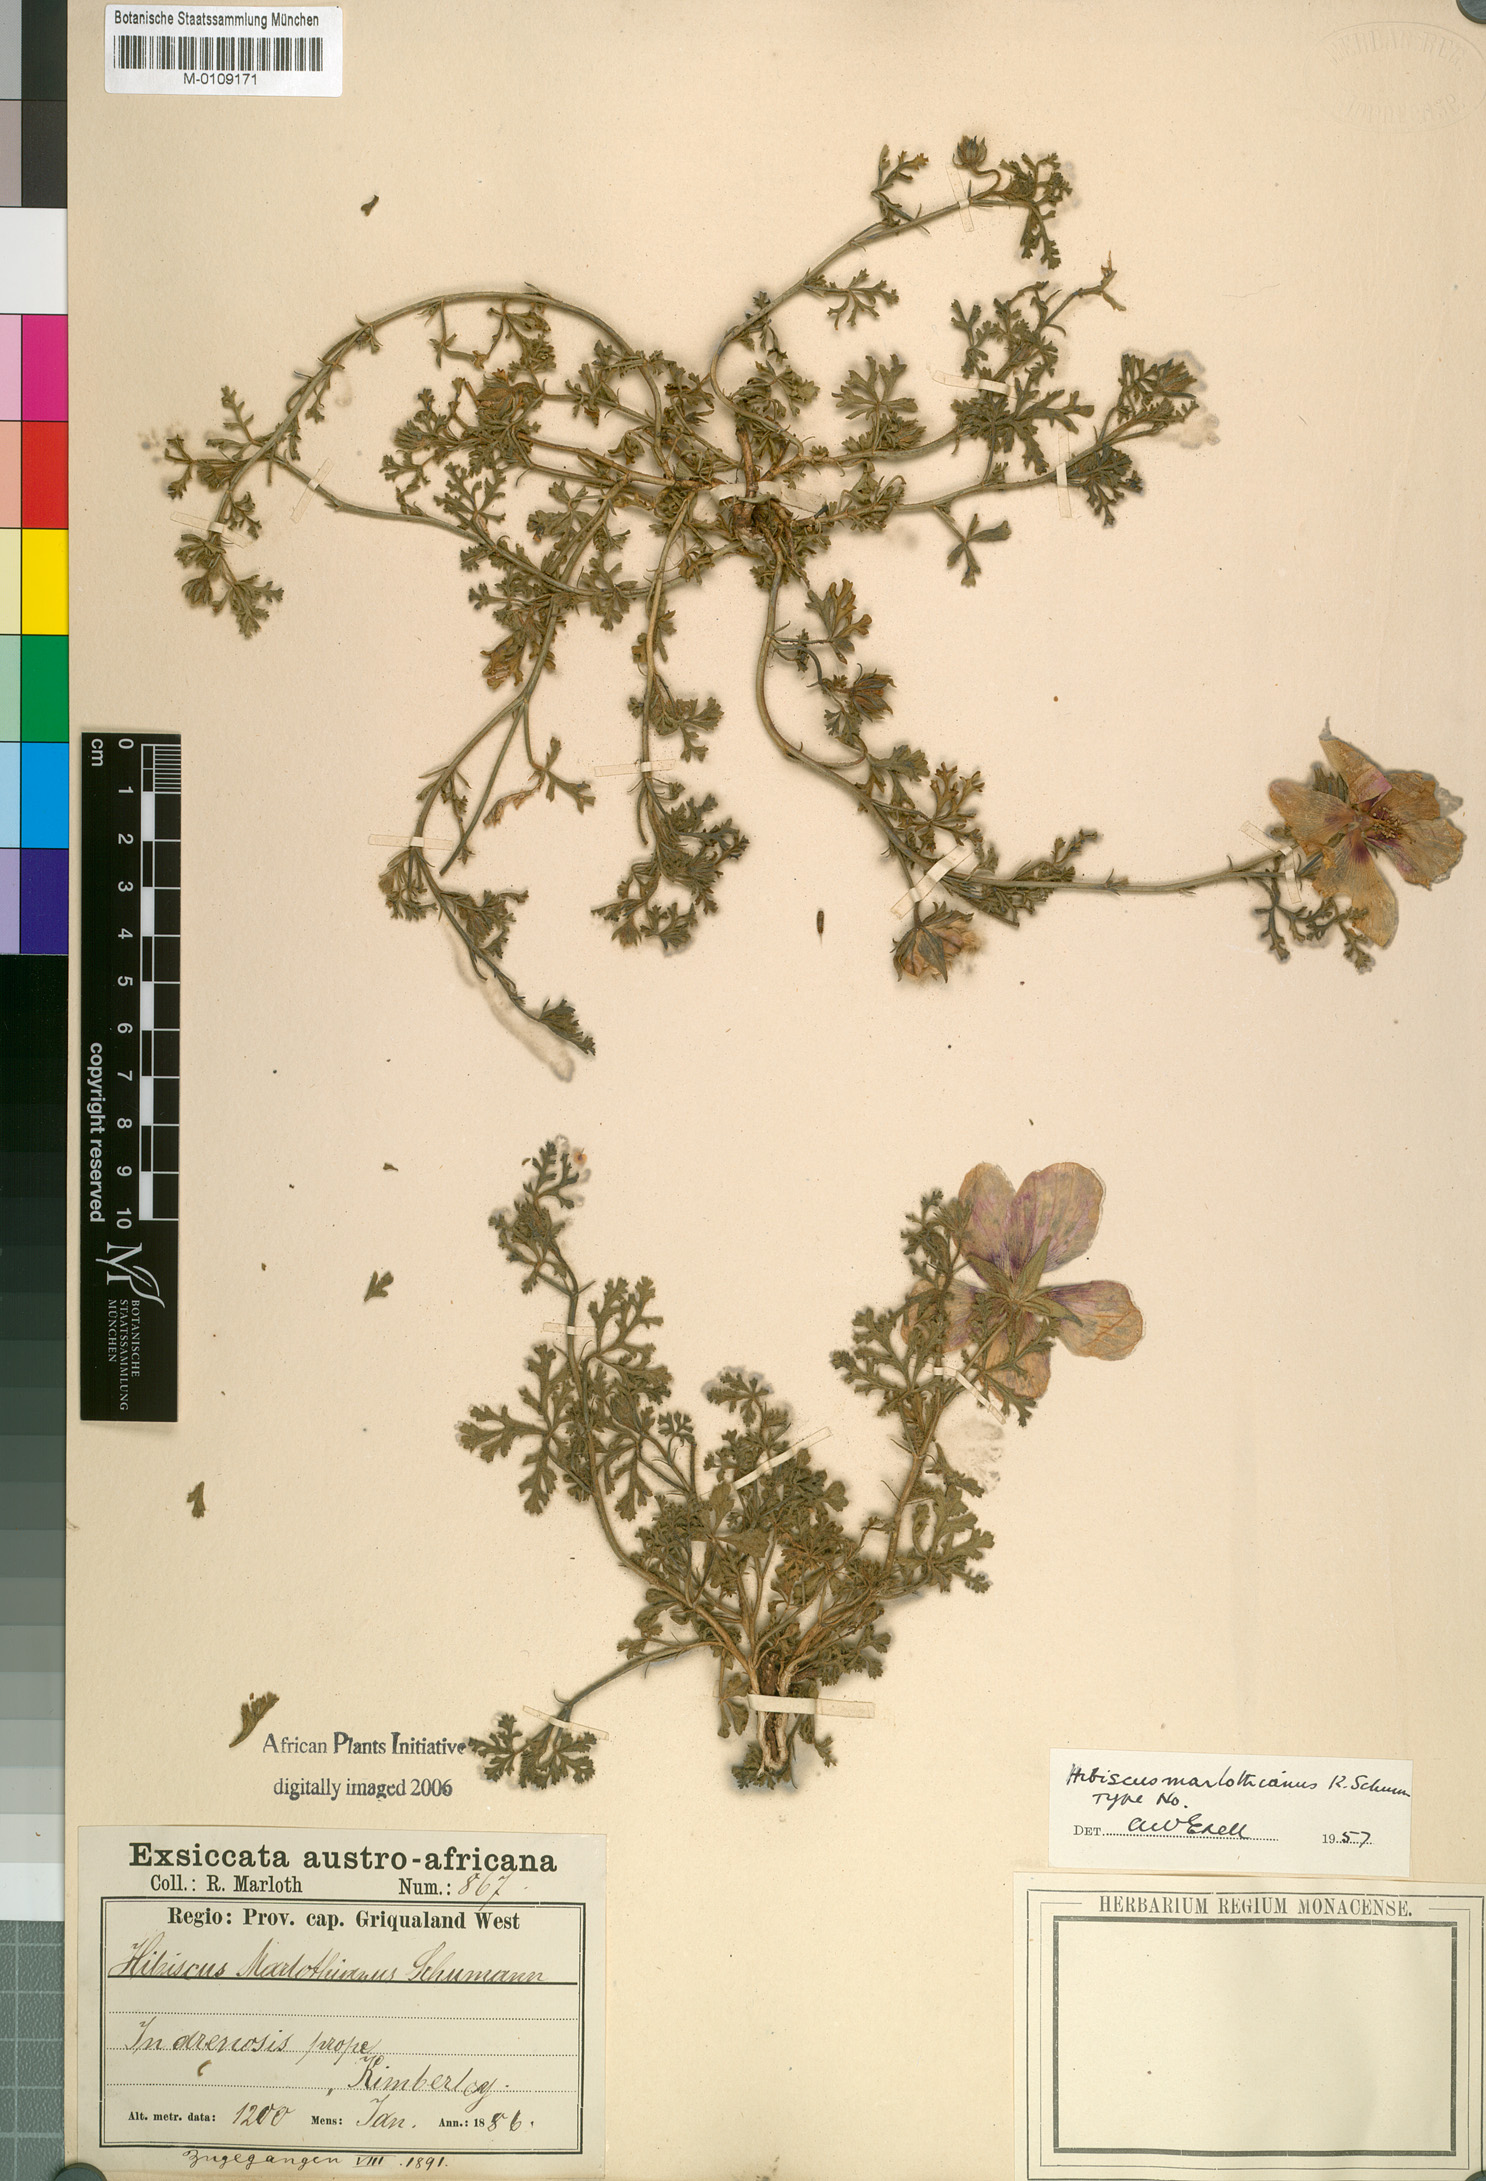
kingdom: Plantae
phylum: Tracheophyta
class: Magnoliopsida
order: Malvales
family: Malvaceae
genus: Hibiscus
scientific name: Hibiscus marlothianus
